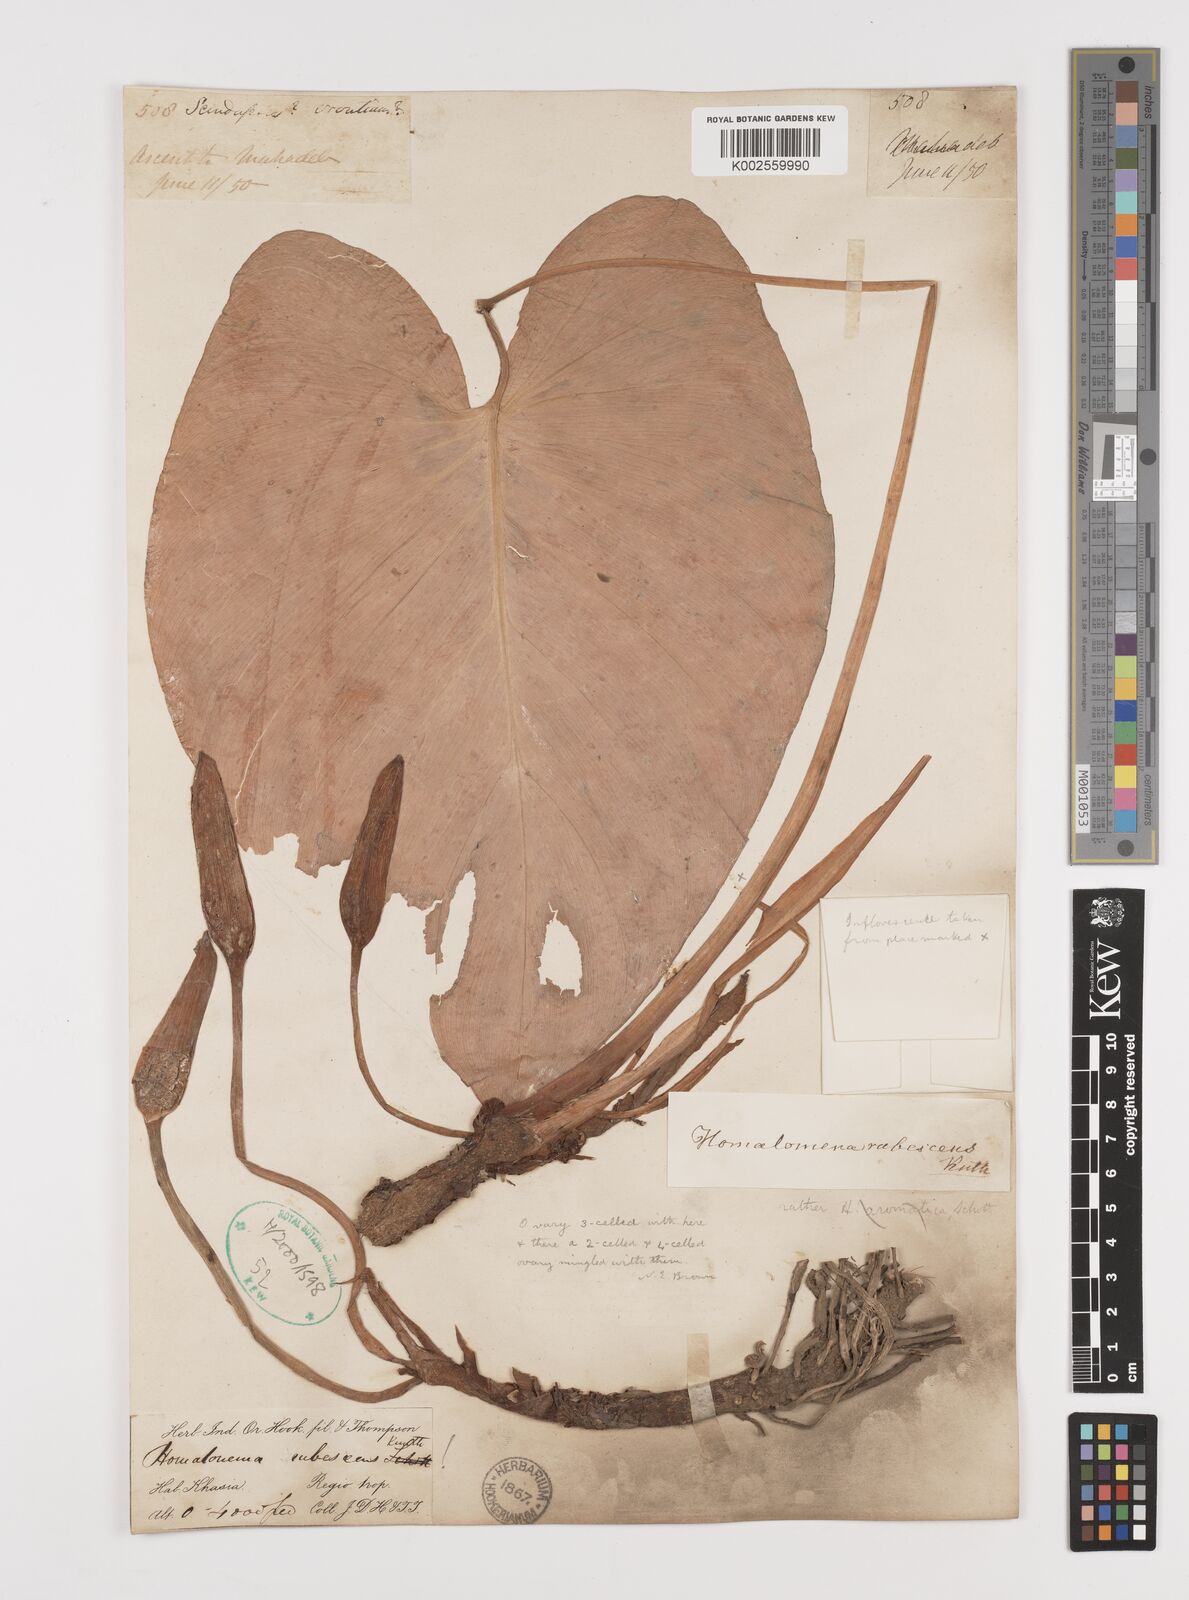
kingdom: Plantae
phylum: Tracheophyta
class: Liliopsida
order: Alismatales
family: Araceae
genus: Homalomena
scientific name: Homalomena rubescens
